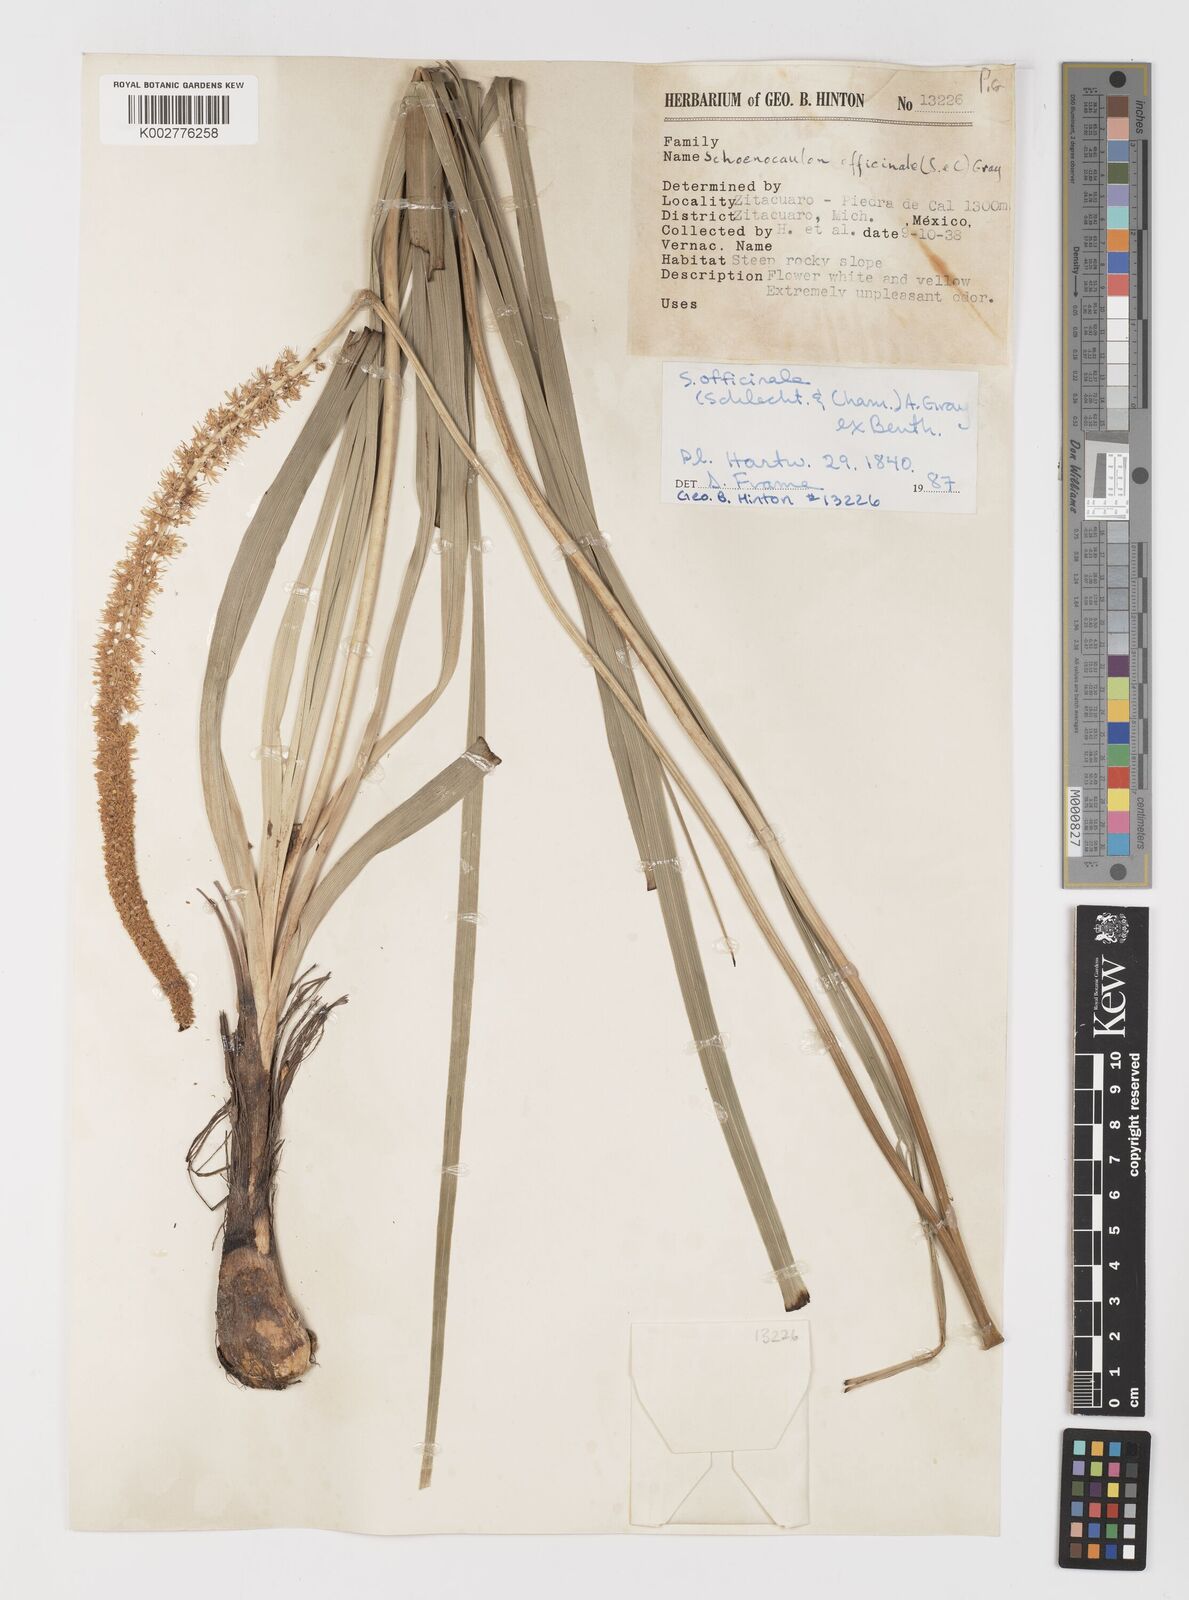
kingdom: Plantae
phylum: Tracheophyta
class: Liliopsida
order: Liliales
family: Melanthiaceae
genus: Schoenocaulon
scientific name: Schoenocaulon officinale
